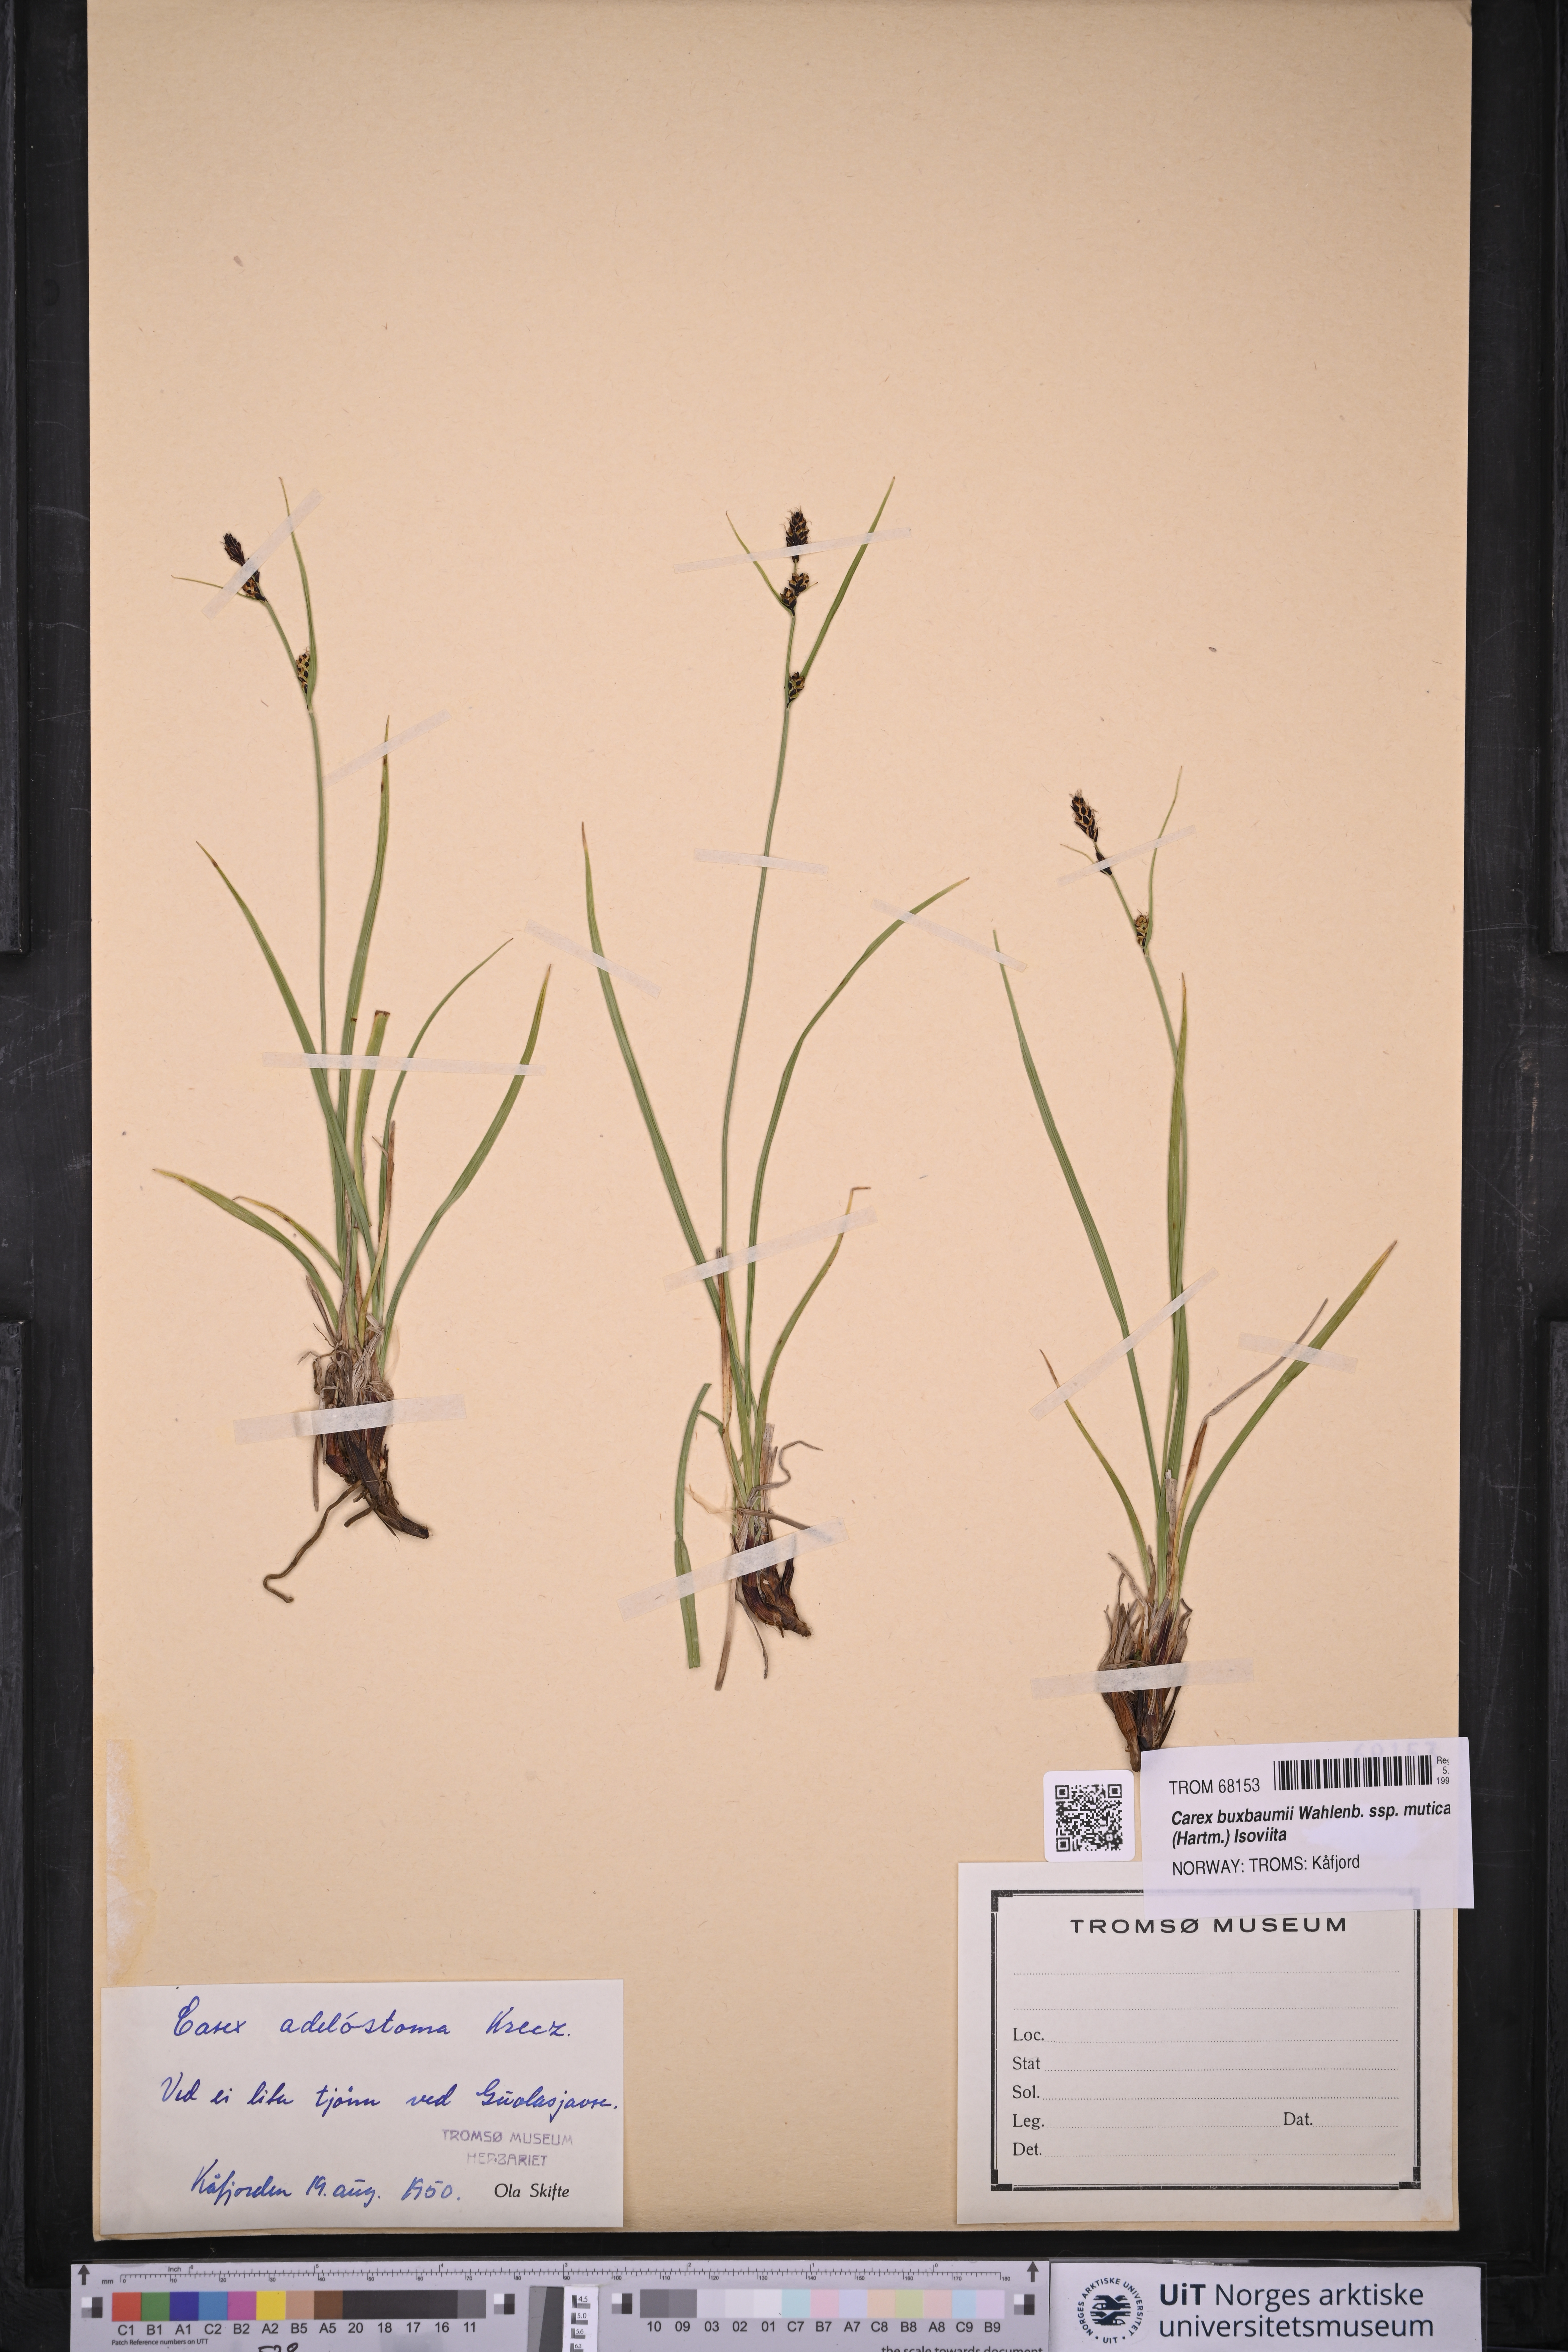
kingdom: Plantae
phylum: Tracheophyta
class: Liliopsida
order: Poales
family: Cyperaceae
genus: Carex
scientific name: Carex adelostoma
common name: Circumpolar sedge
